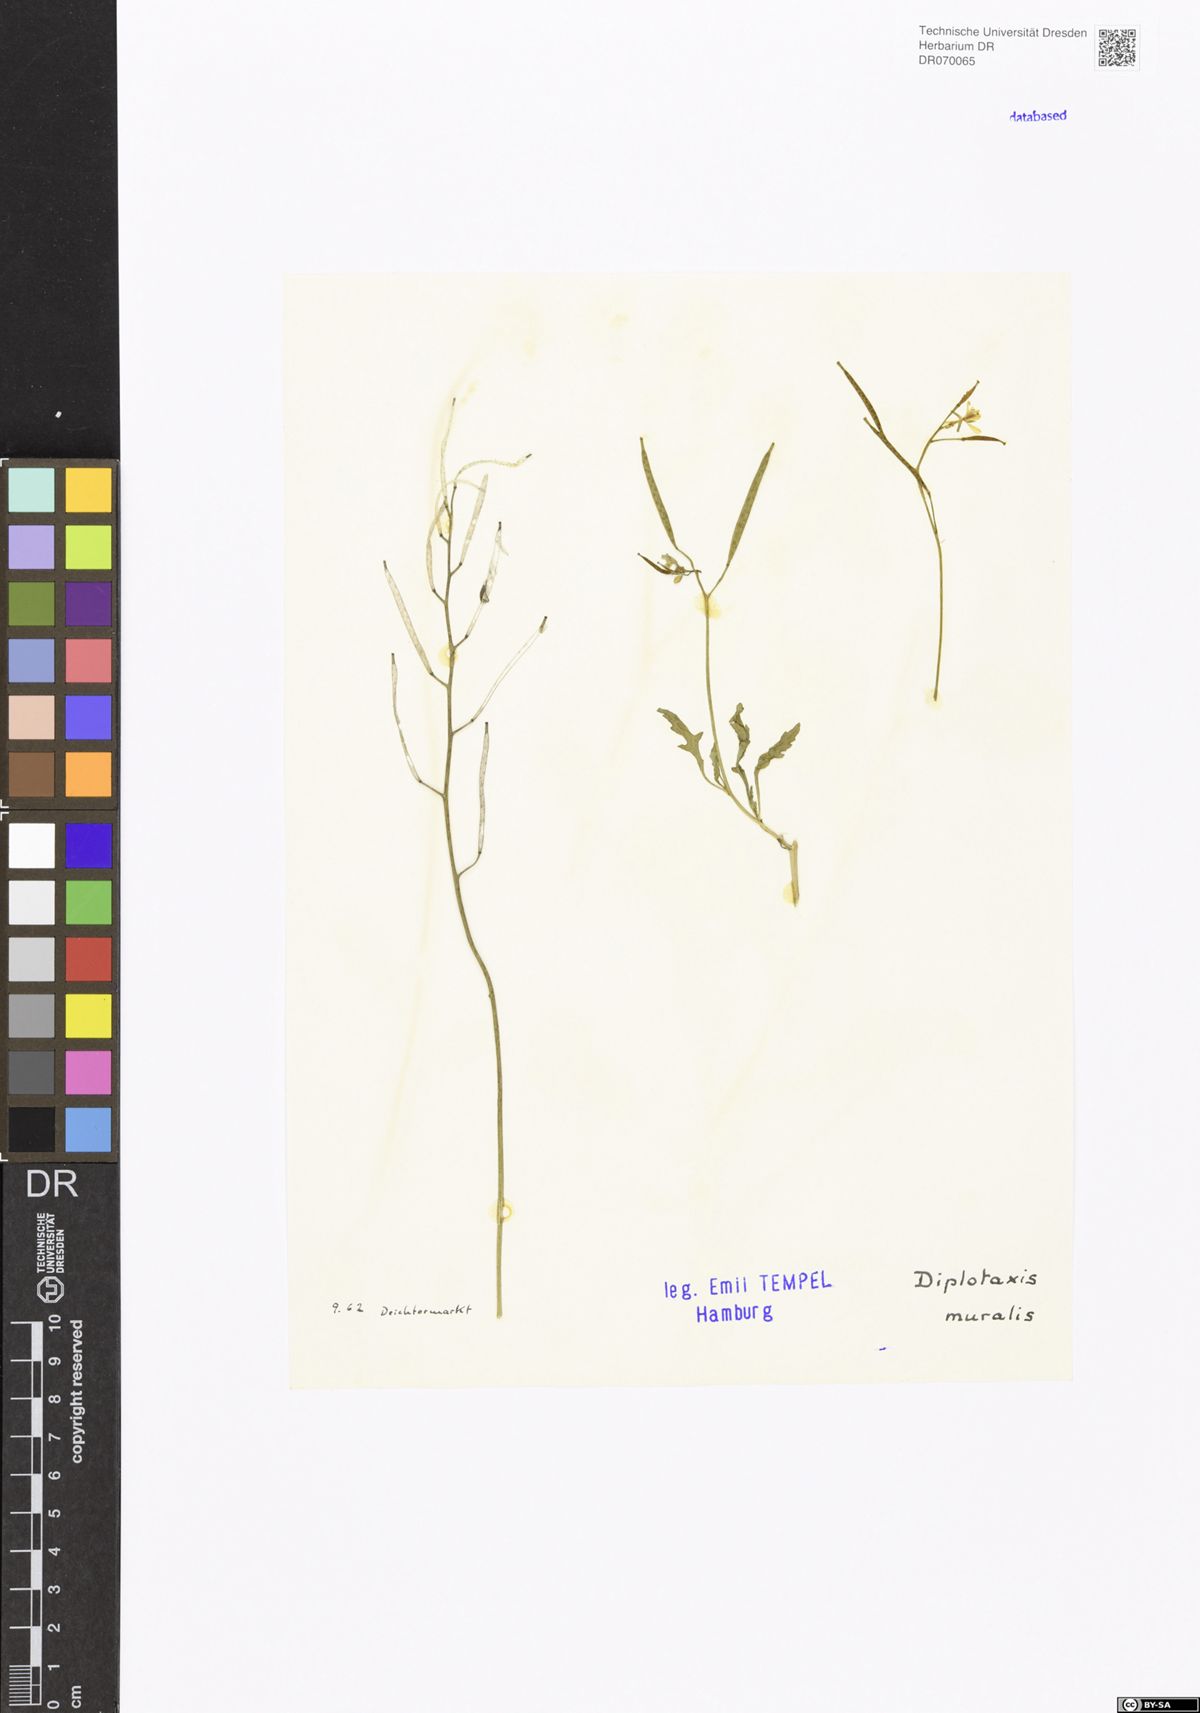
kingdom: Plantae
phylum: Tracheophyta
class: Magnoliopsida
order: Brassicales
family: Brassicaceae
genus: Diplotaxis
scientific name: Diplotaxis muralis
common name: Annual wall-rocket
